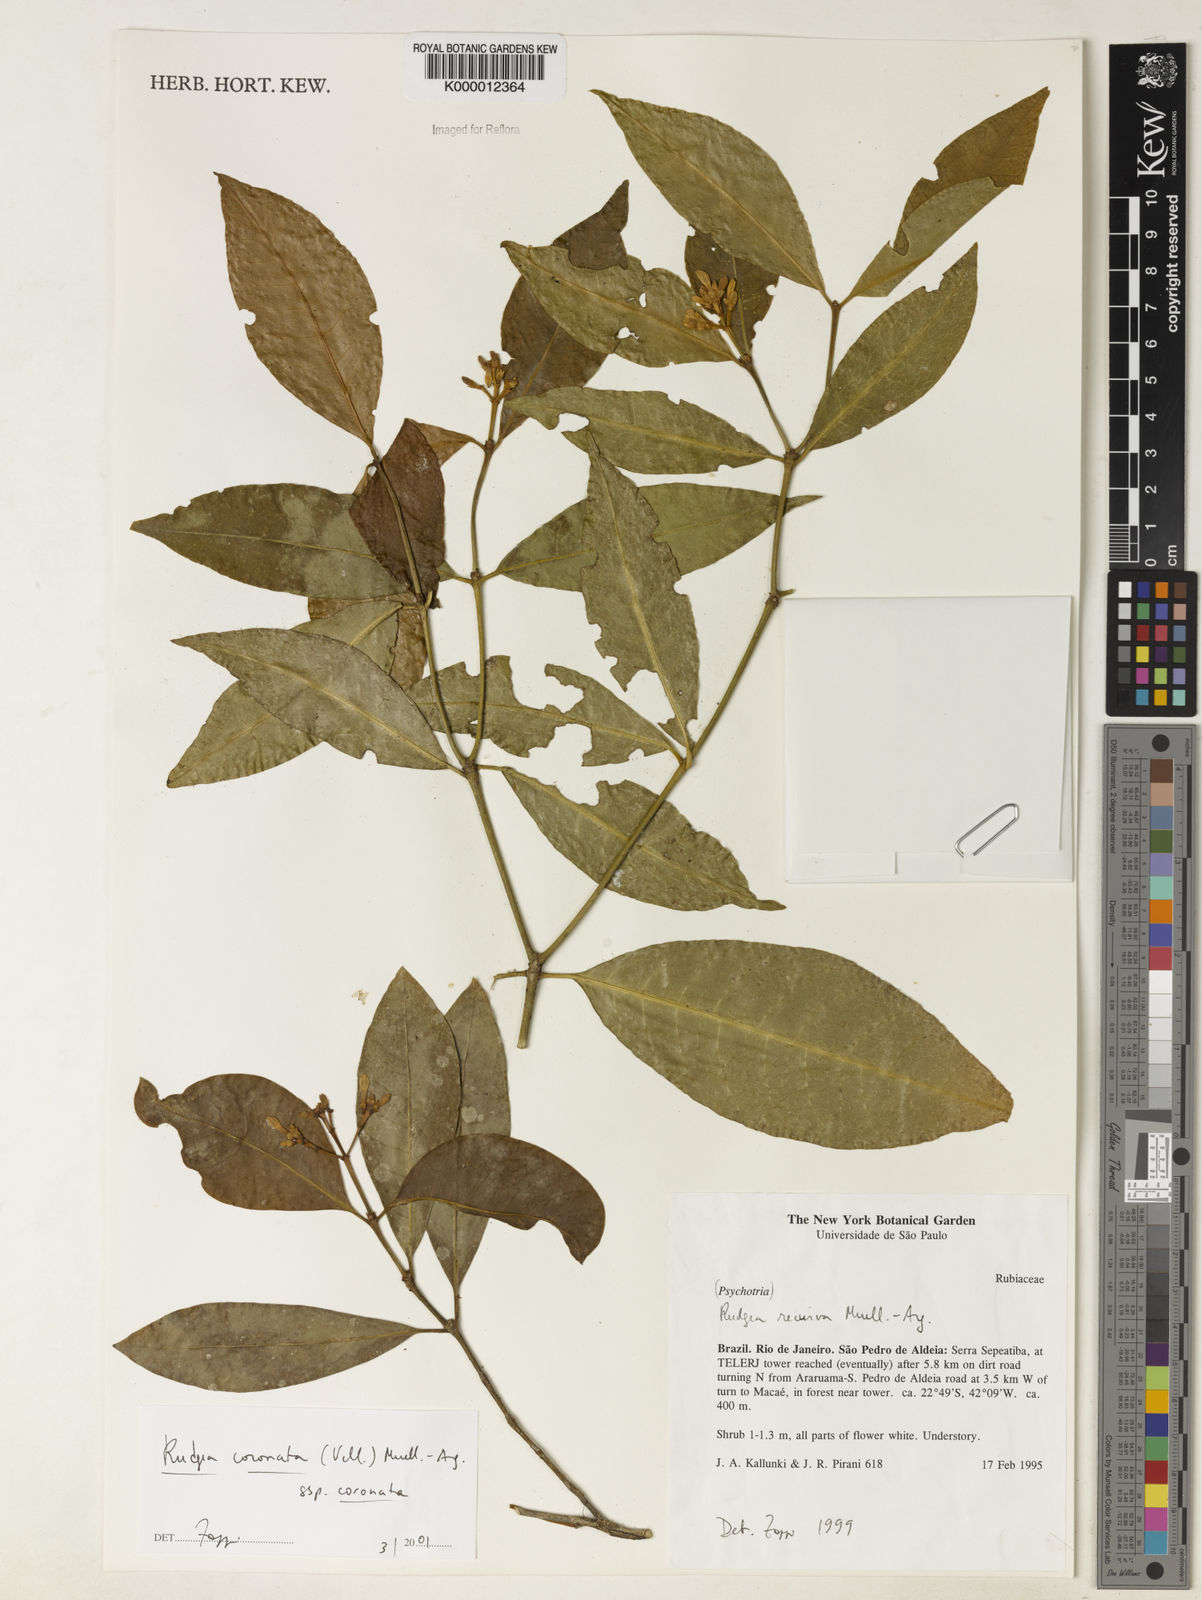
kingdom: Plantae
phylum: Tracheophyta
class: Magnoliopsida
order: Gentianales
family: Rubiaceae
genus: Rudgea
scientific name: Rudgea coronata
